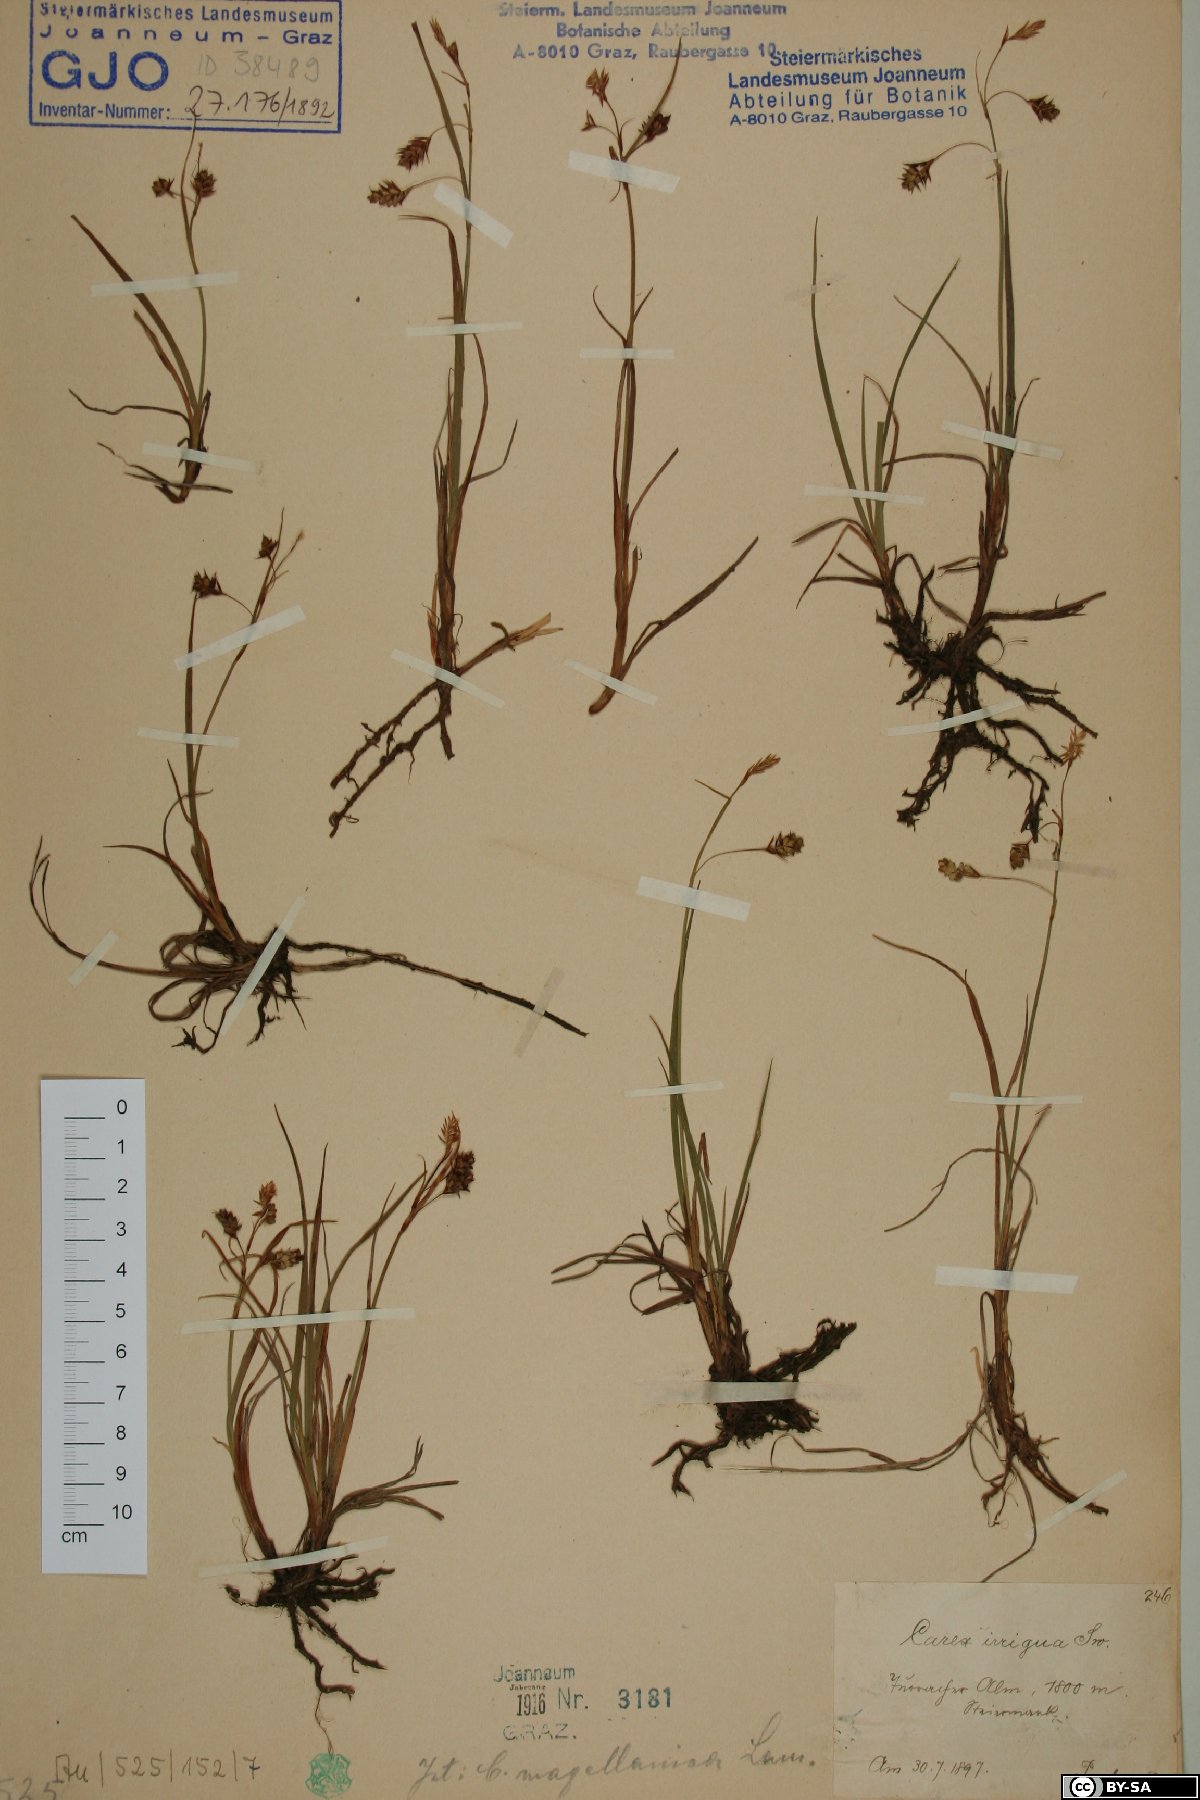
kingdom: Plantae
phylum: Tracheophyta
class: Liliopsida
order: Poales
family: Cyperaceae
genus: Carex
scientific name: Carex magellanica
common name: Bog sedge
